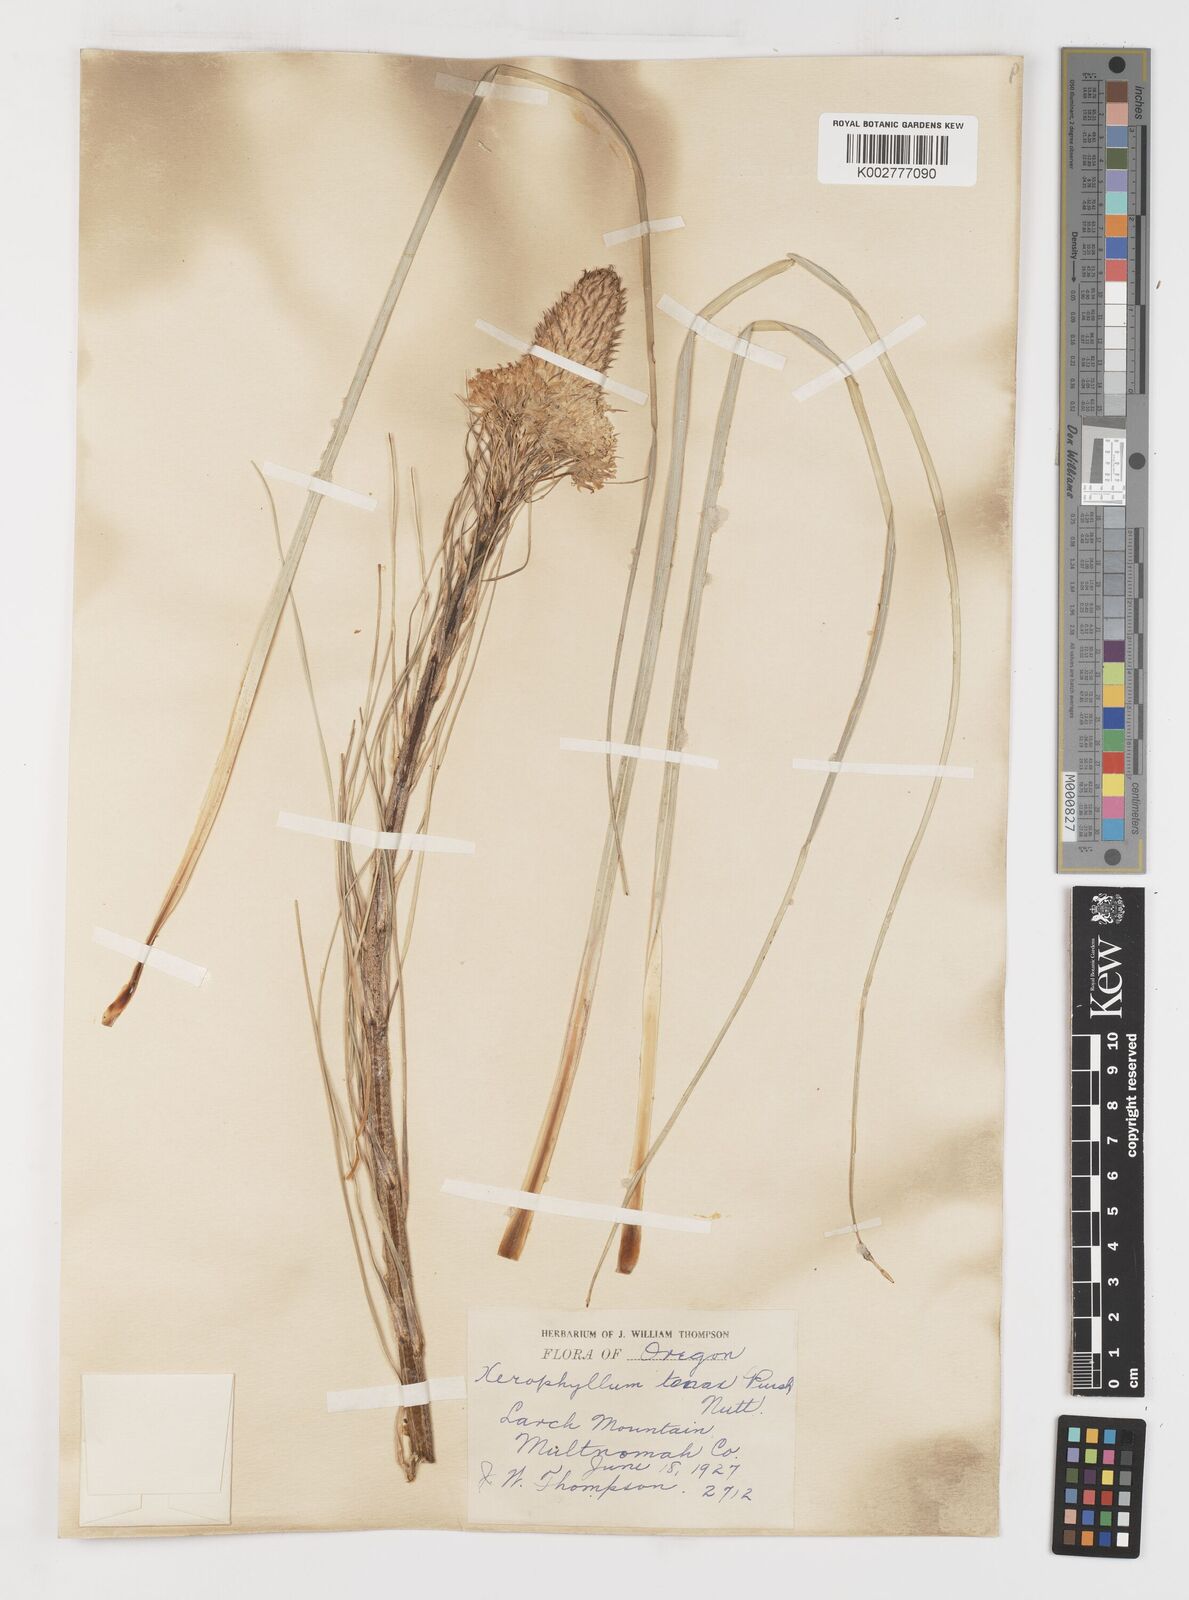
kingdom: Plantae
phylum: Tracheophyta
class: Liliopsida
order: Liliales
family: Melanthiaceae
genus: Xerophyllum
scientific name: Xerophyllum tenax
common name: Bear-grass
